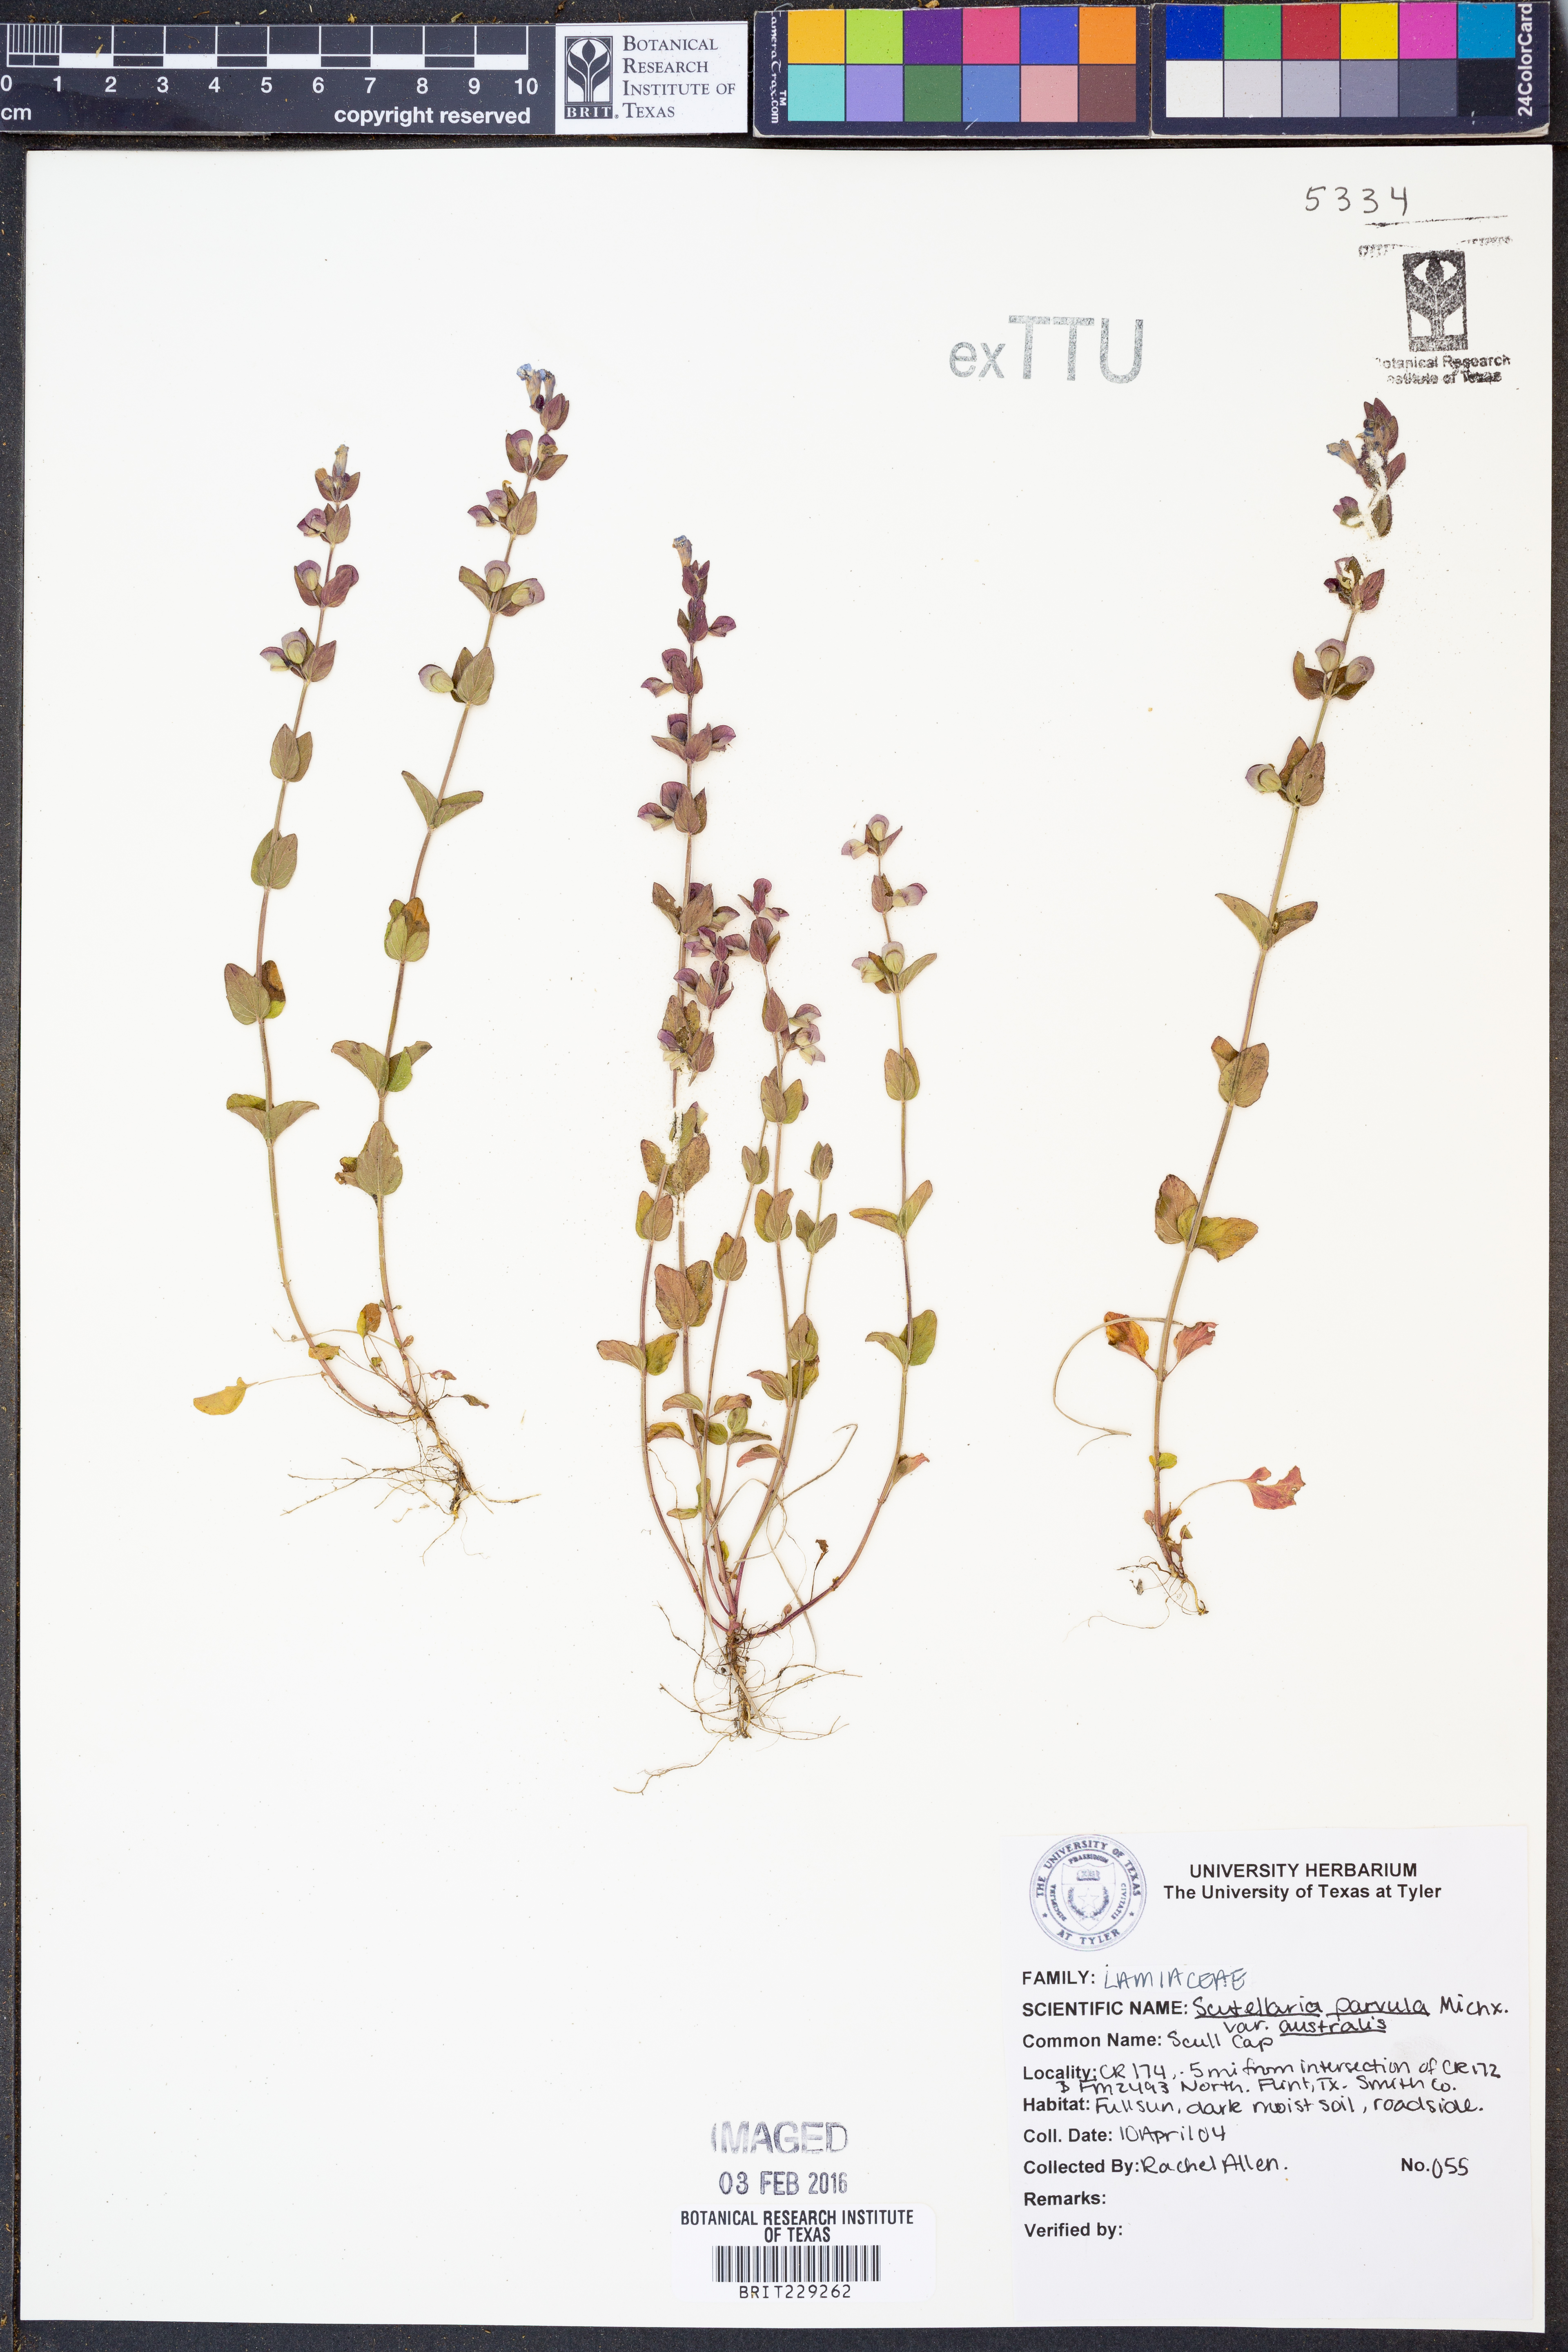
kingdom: Plantae
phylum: Tracheophyta
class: Magnoliopsida
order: Lamiales
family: Lamiaceae
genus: Scutellaria
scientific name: Scutellaria parvula
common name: Little scullcap
